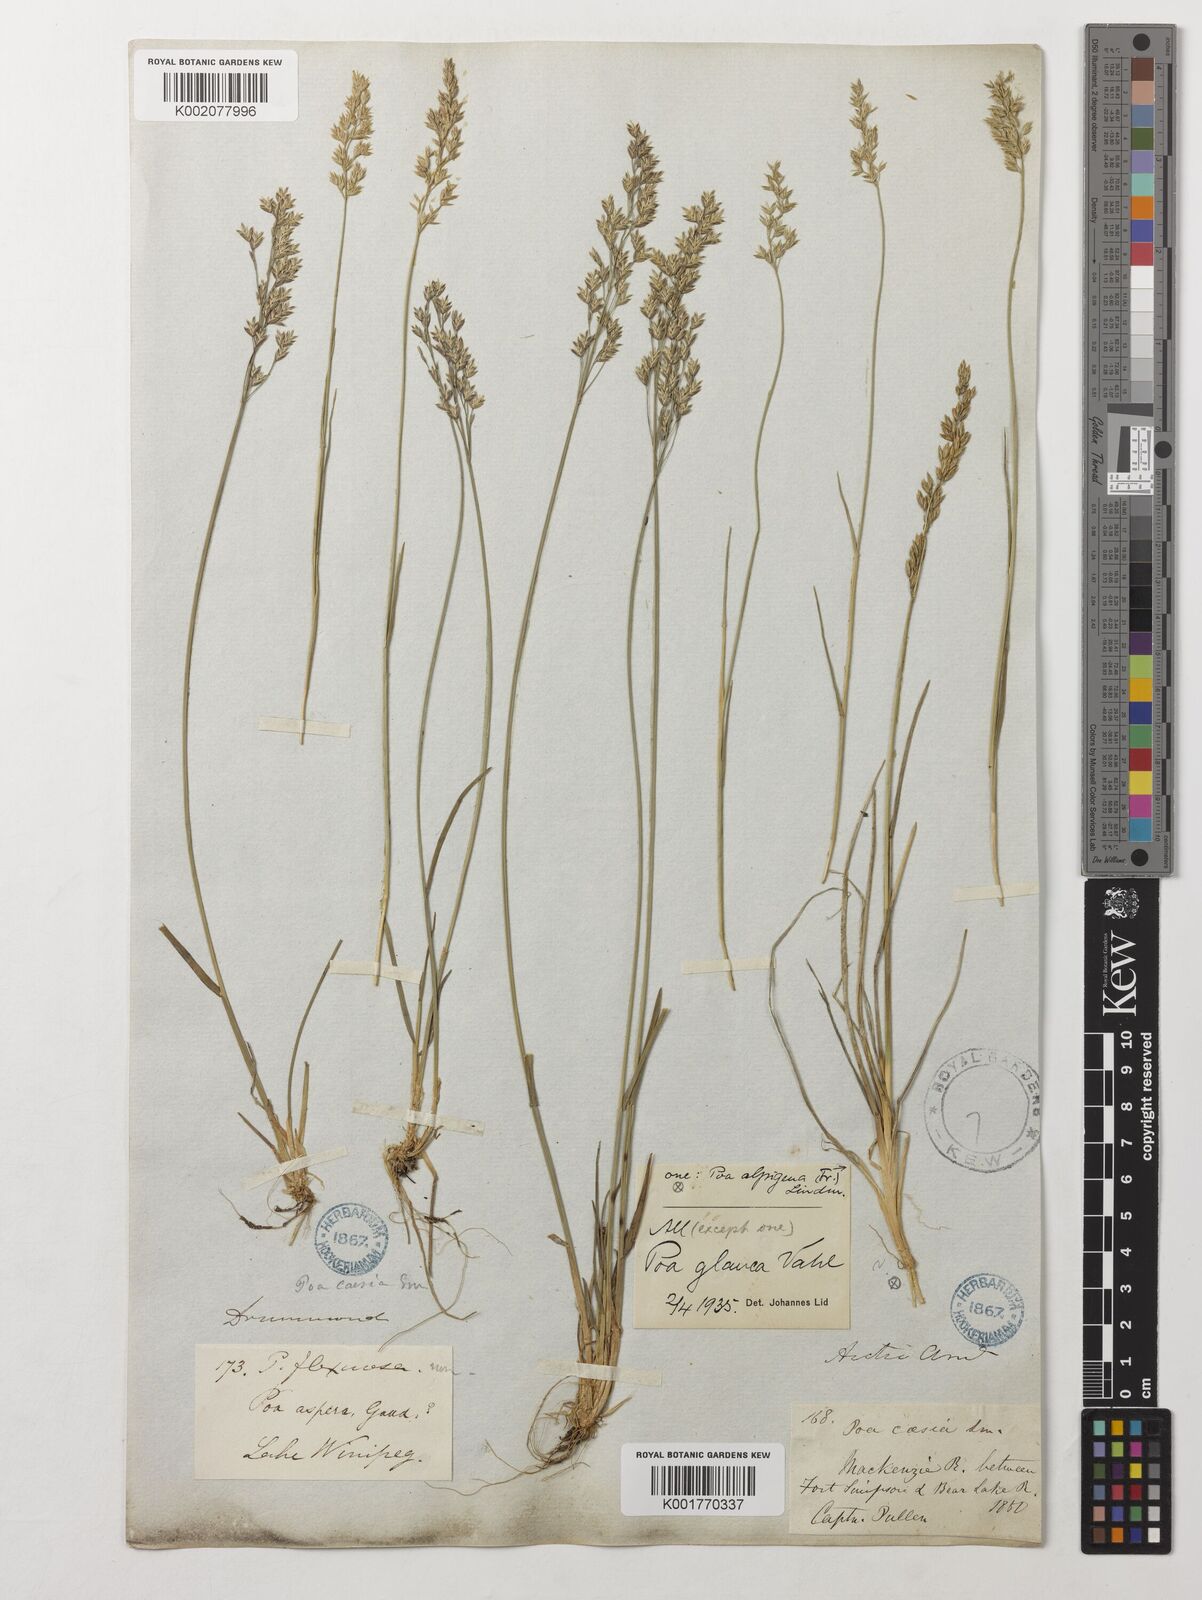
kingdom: Plantae
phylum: Tracheophyta
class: Liliopsida
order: Poales
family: Poaceae
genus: Poa
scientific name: Poa alpigena
